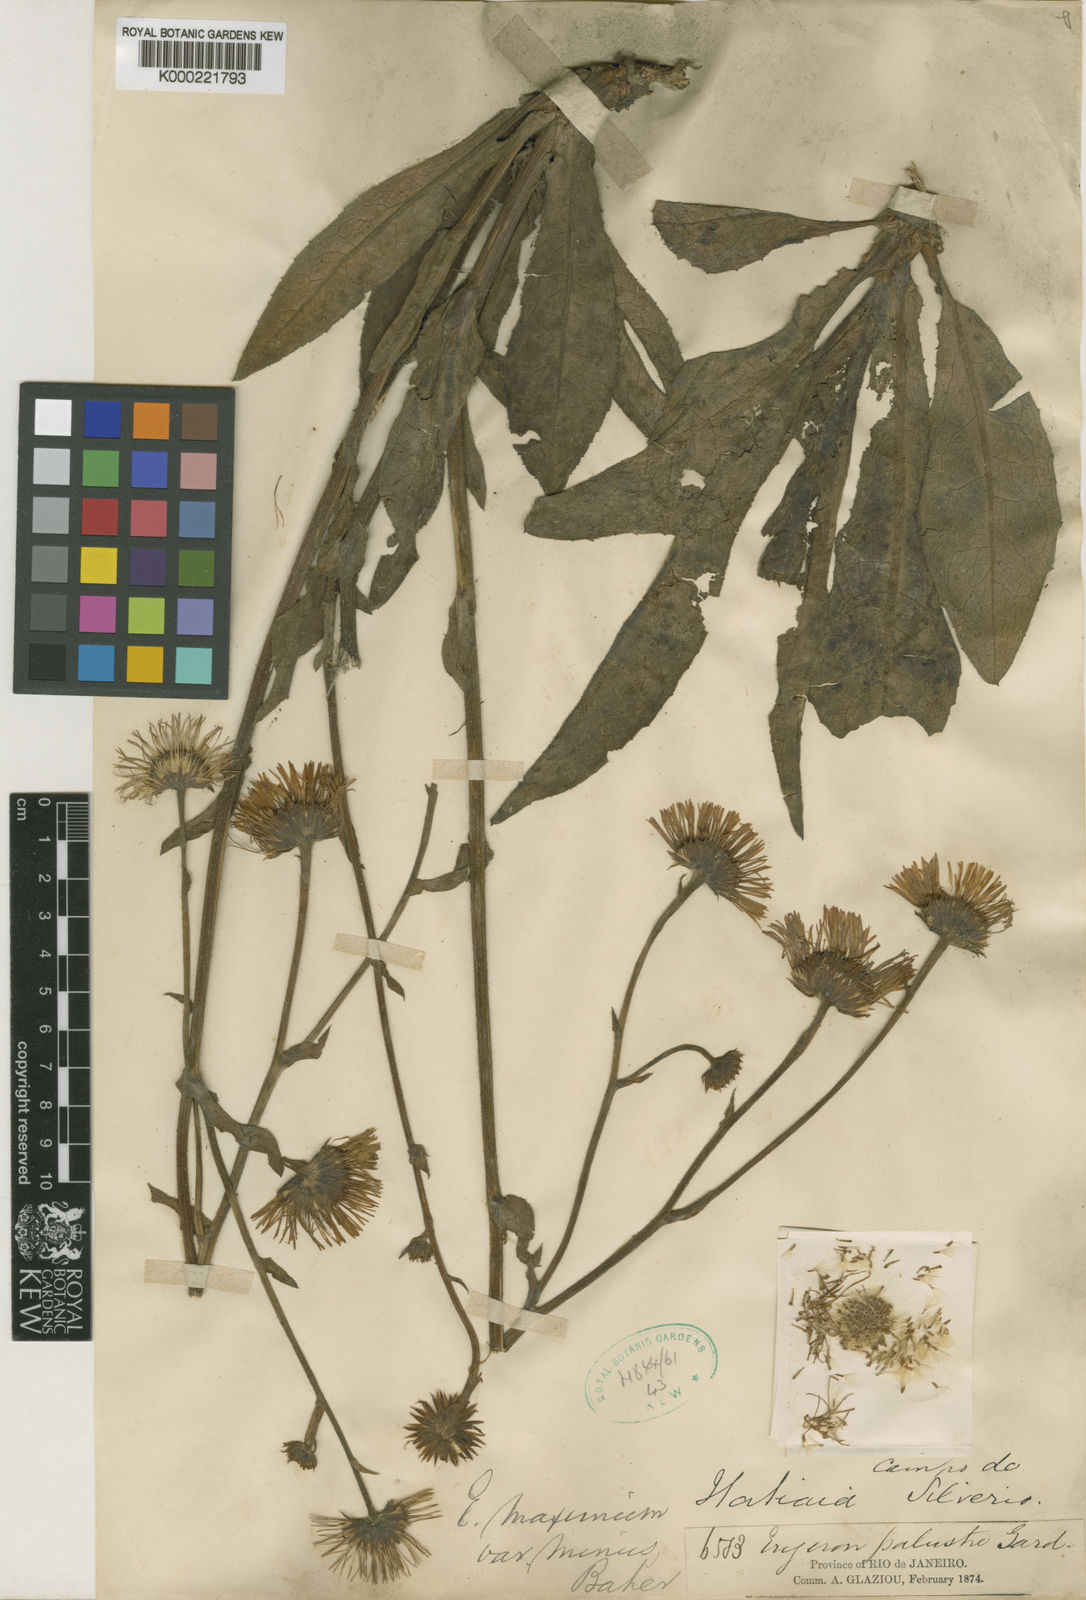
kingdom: Plantae
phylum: Tracheophyta
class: Magnoliopsida
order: Asterales
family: Asteraceae
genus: Leptostelma
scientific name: Leptostelma maxima
